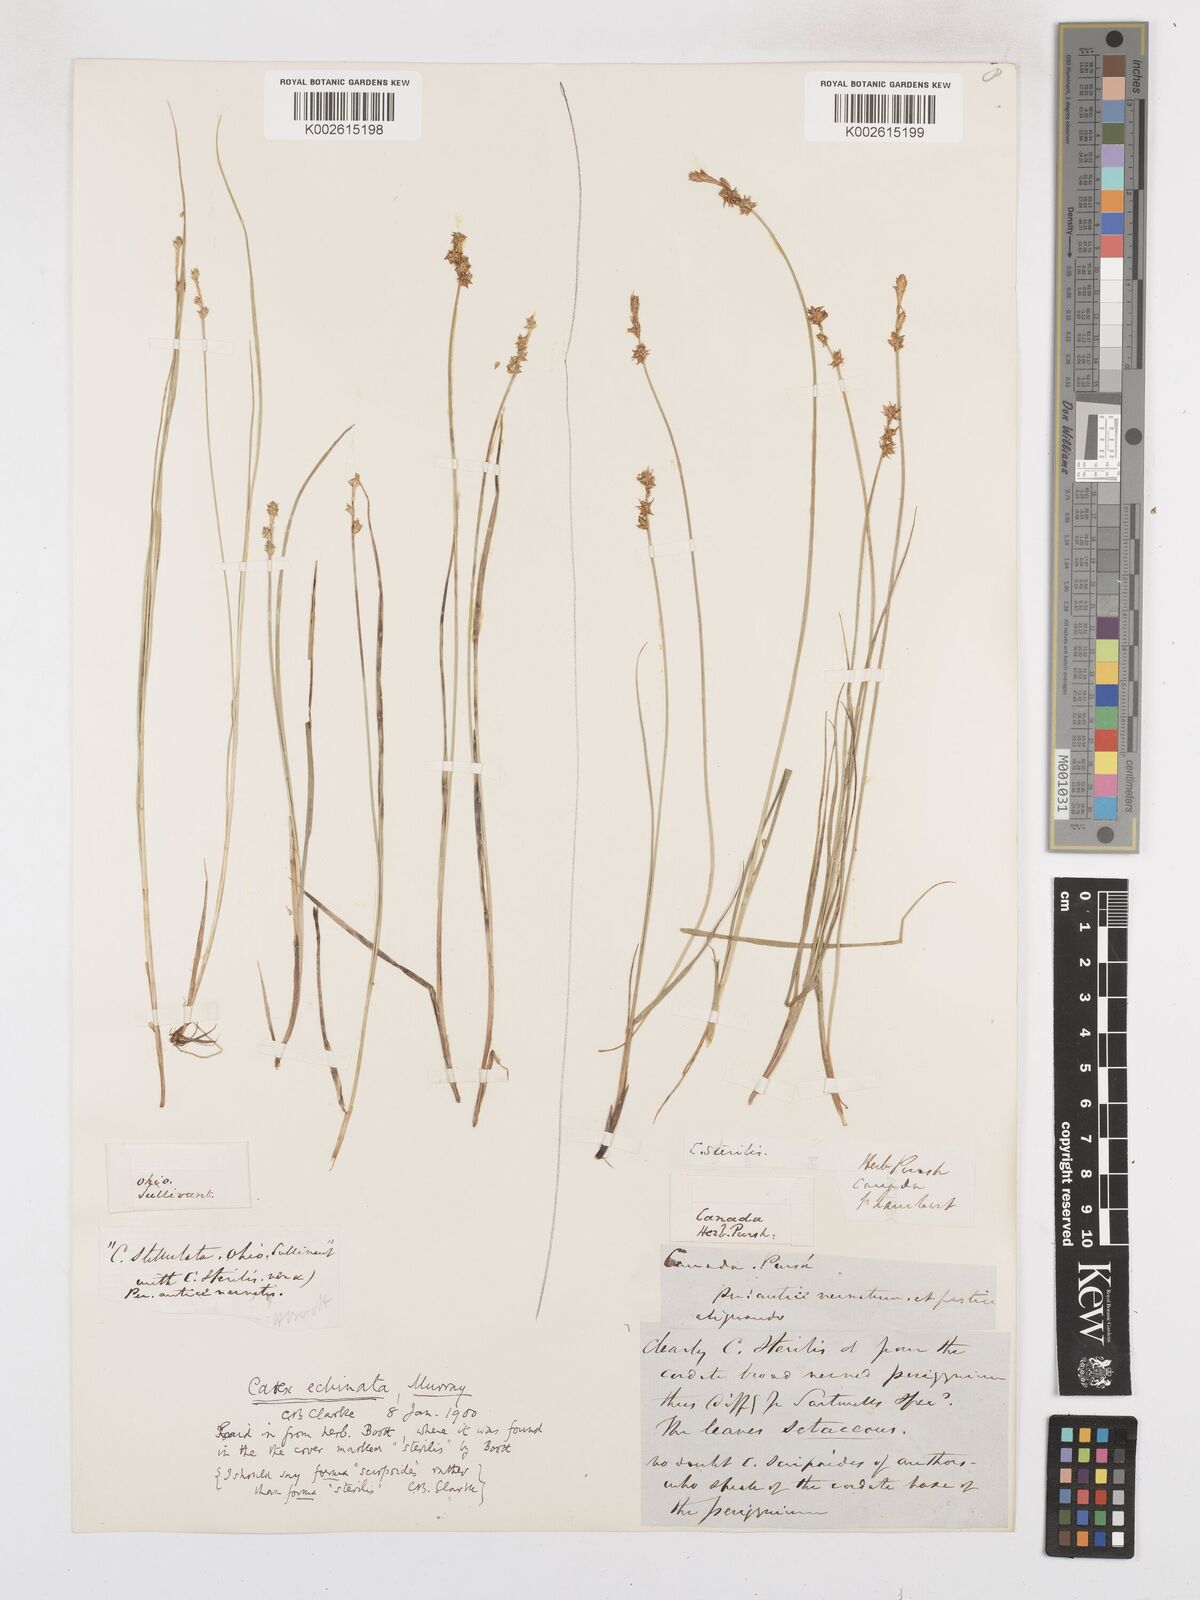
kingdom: Plantae
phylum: Tracheophyta
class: Liliopsida
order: Poales
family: Cyperaceae
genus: Carex
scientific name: Carex echinata
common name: Star sedge
